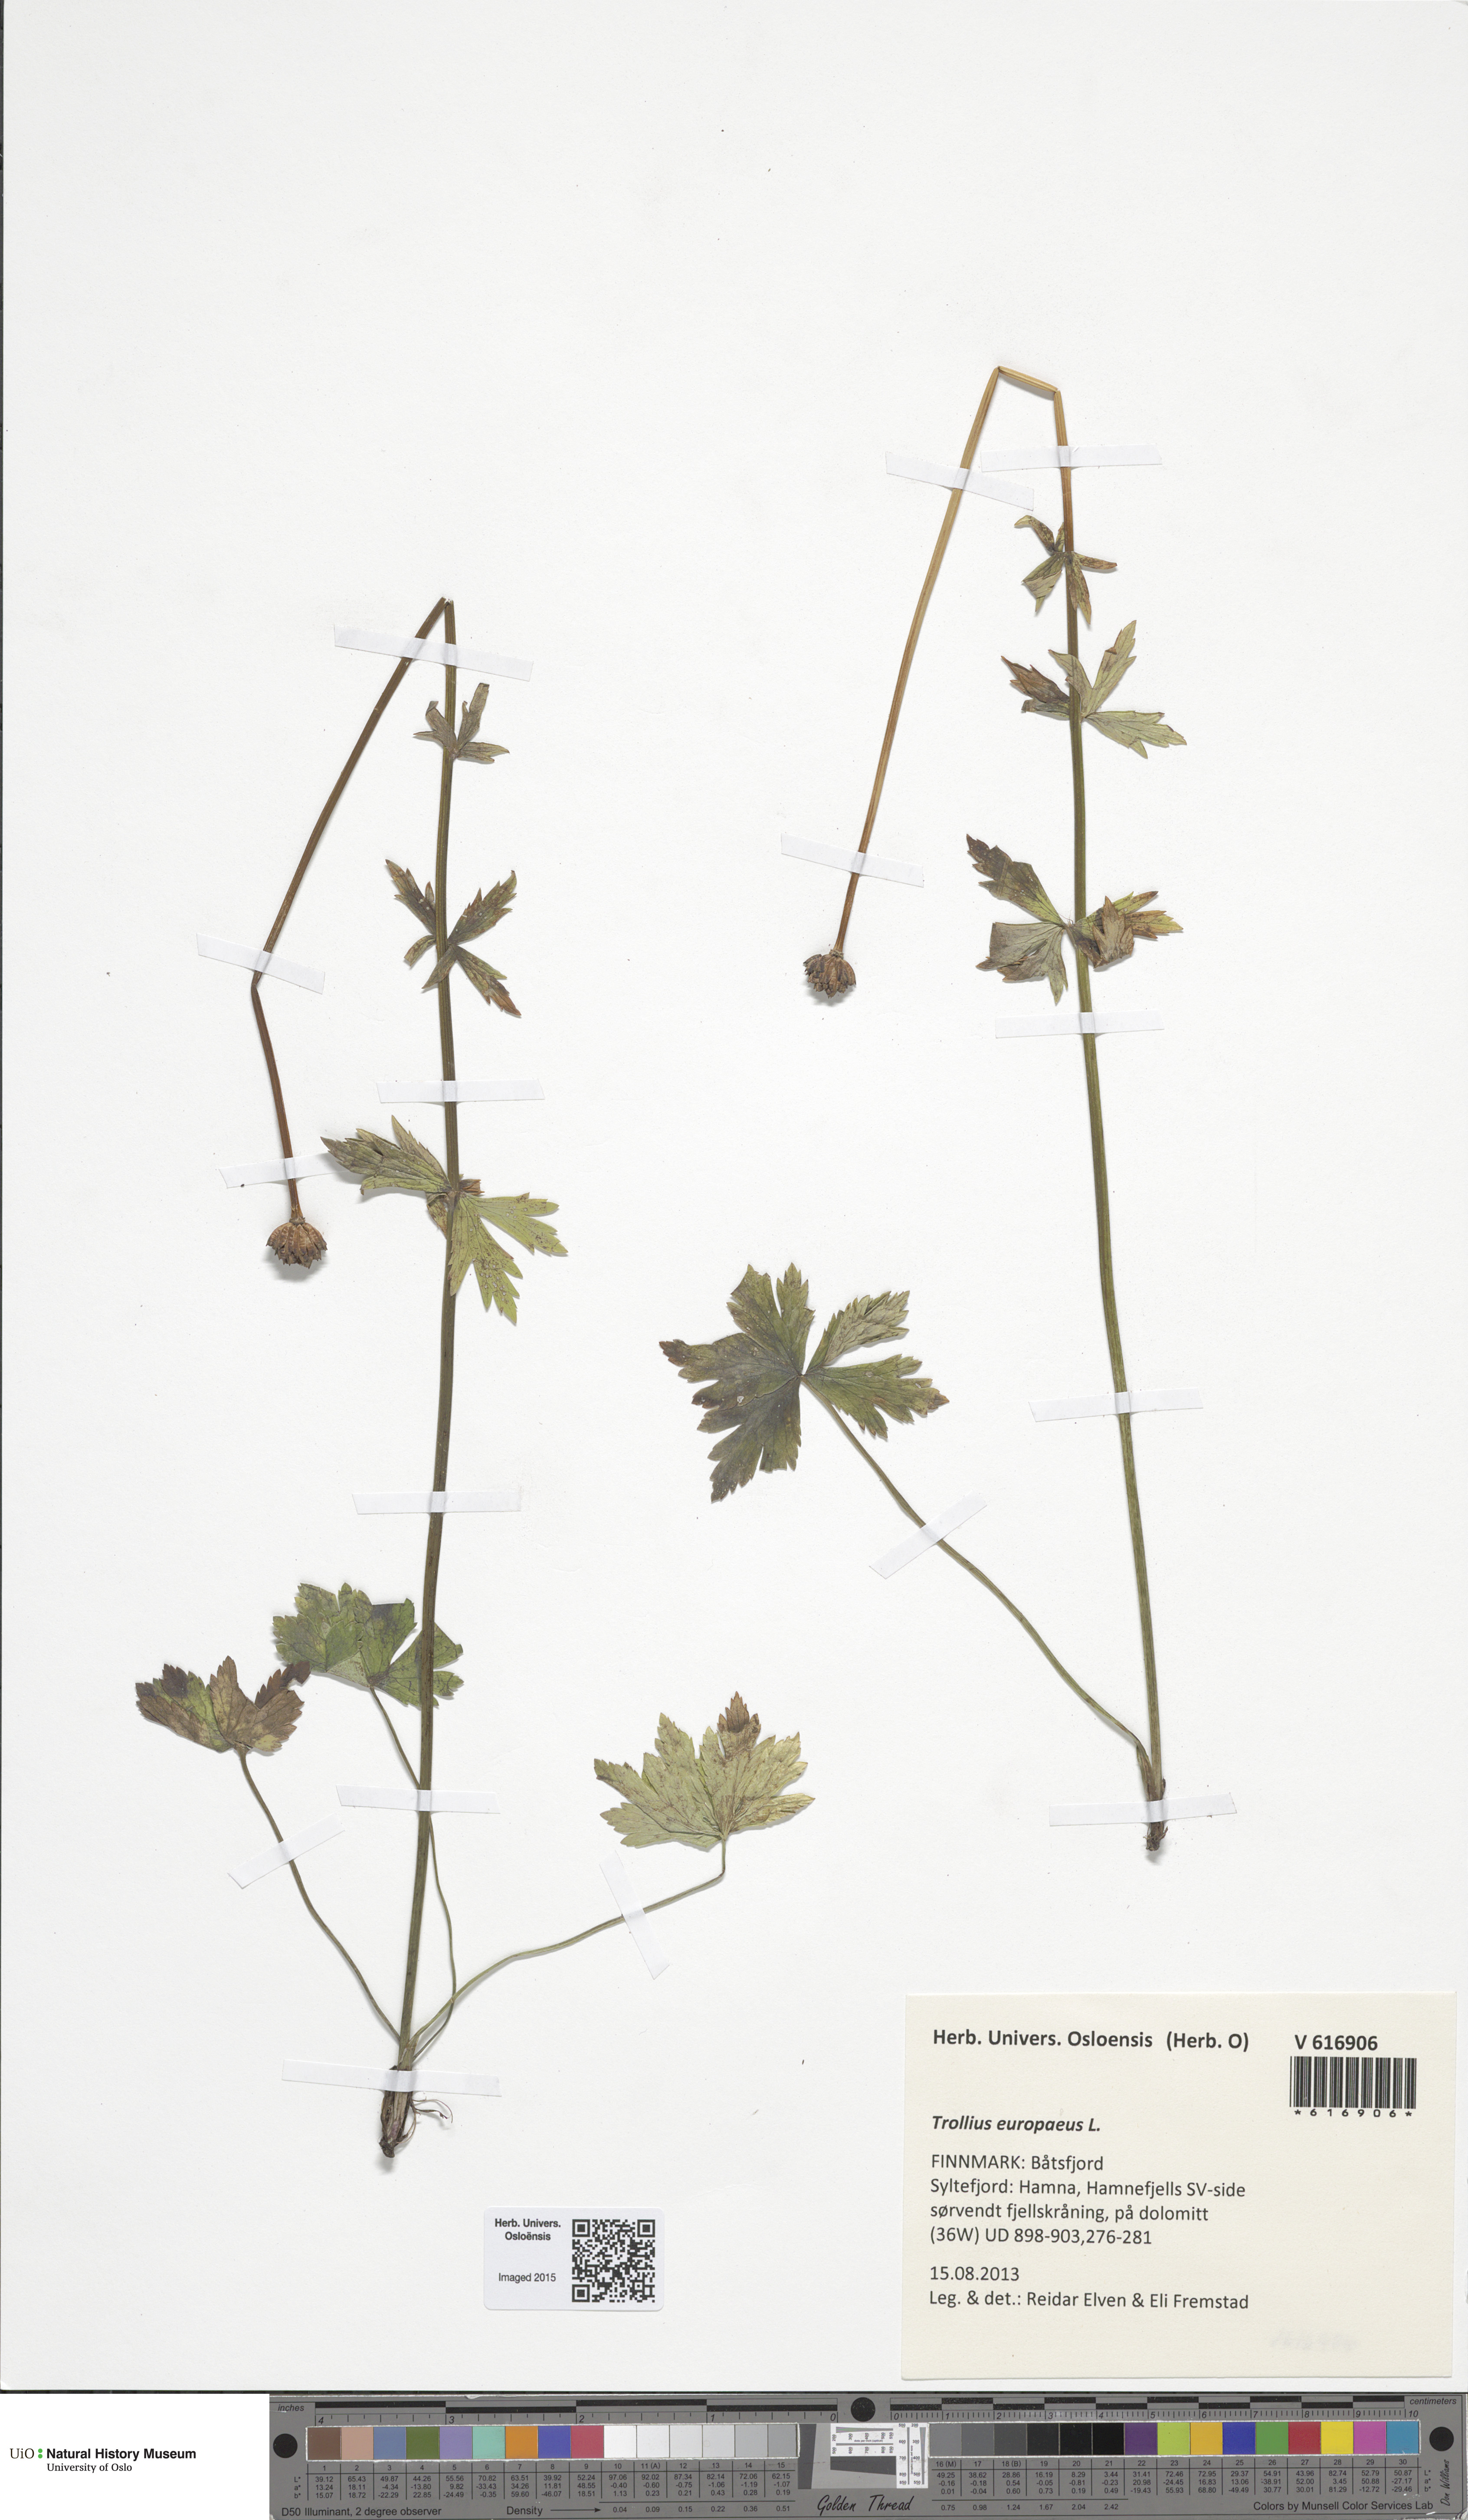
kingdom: Plantae
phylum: Tracheophyta
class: Magnoliopsida
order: Ranunculales
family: Ranunculaceae
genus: Trollius
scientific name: Trollius europaeus
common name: European globeflower
